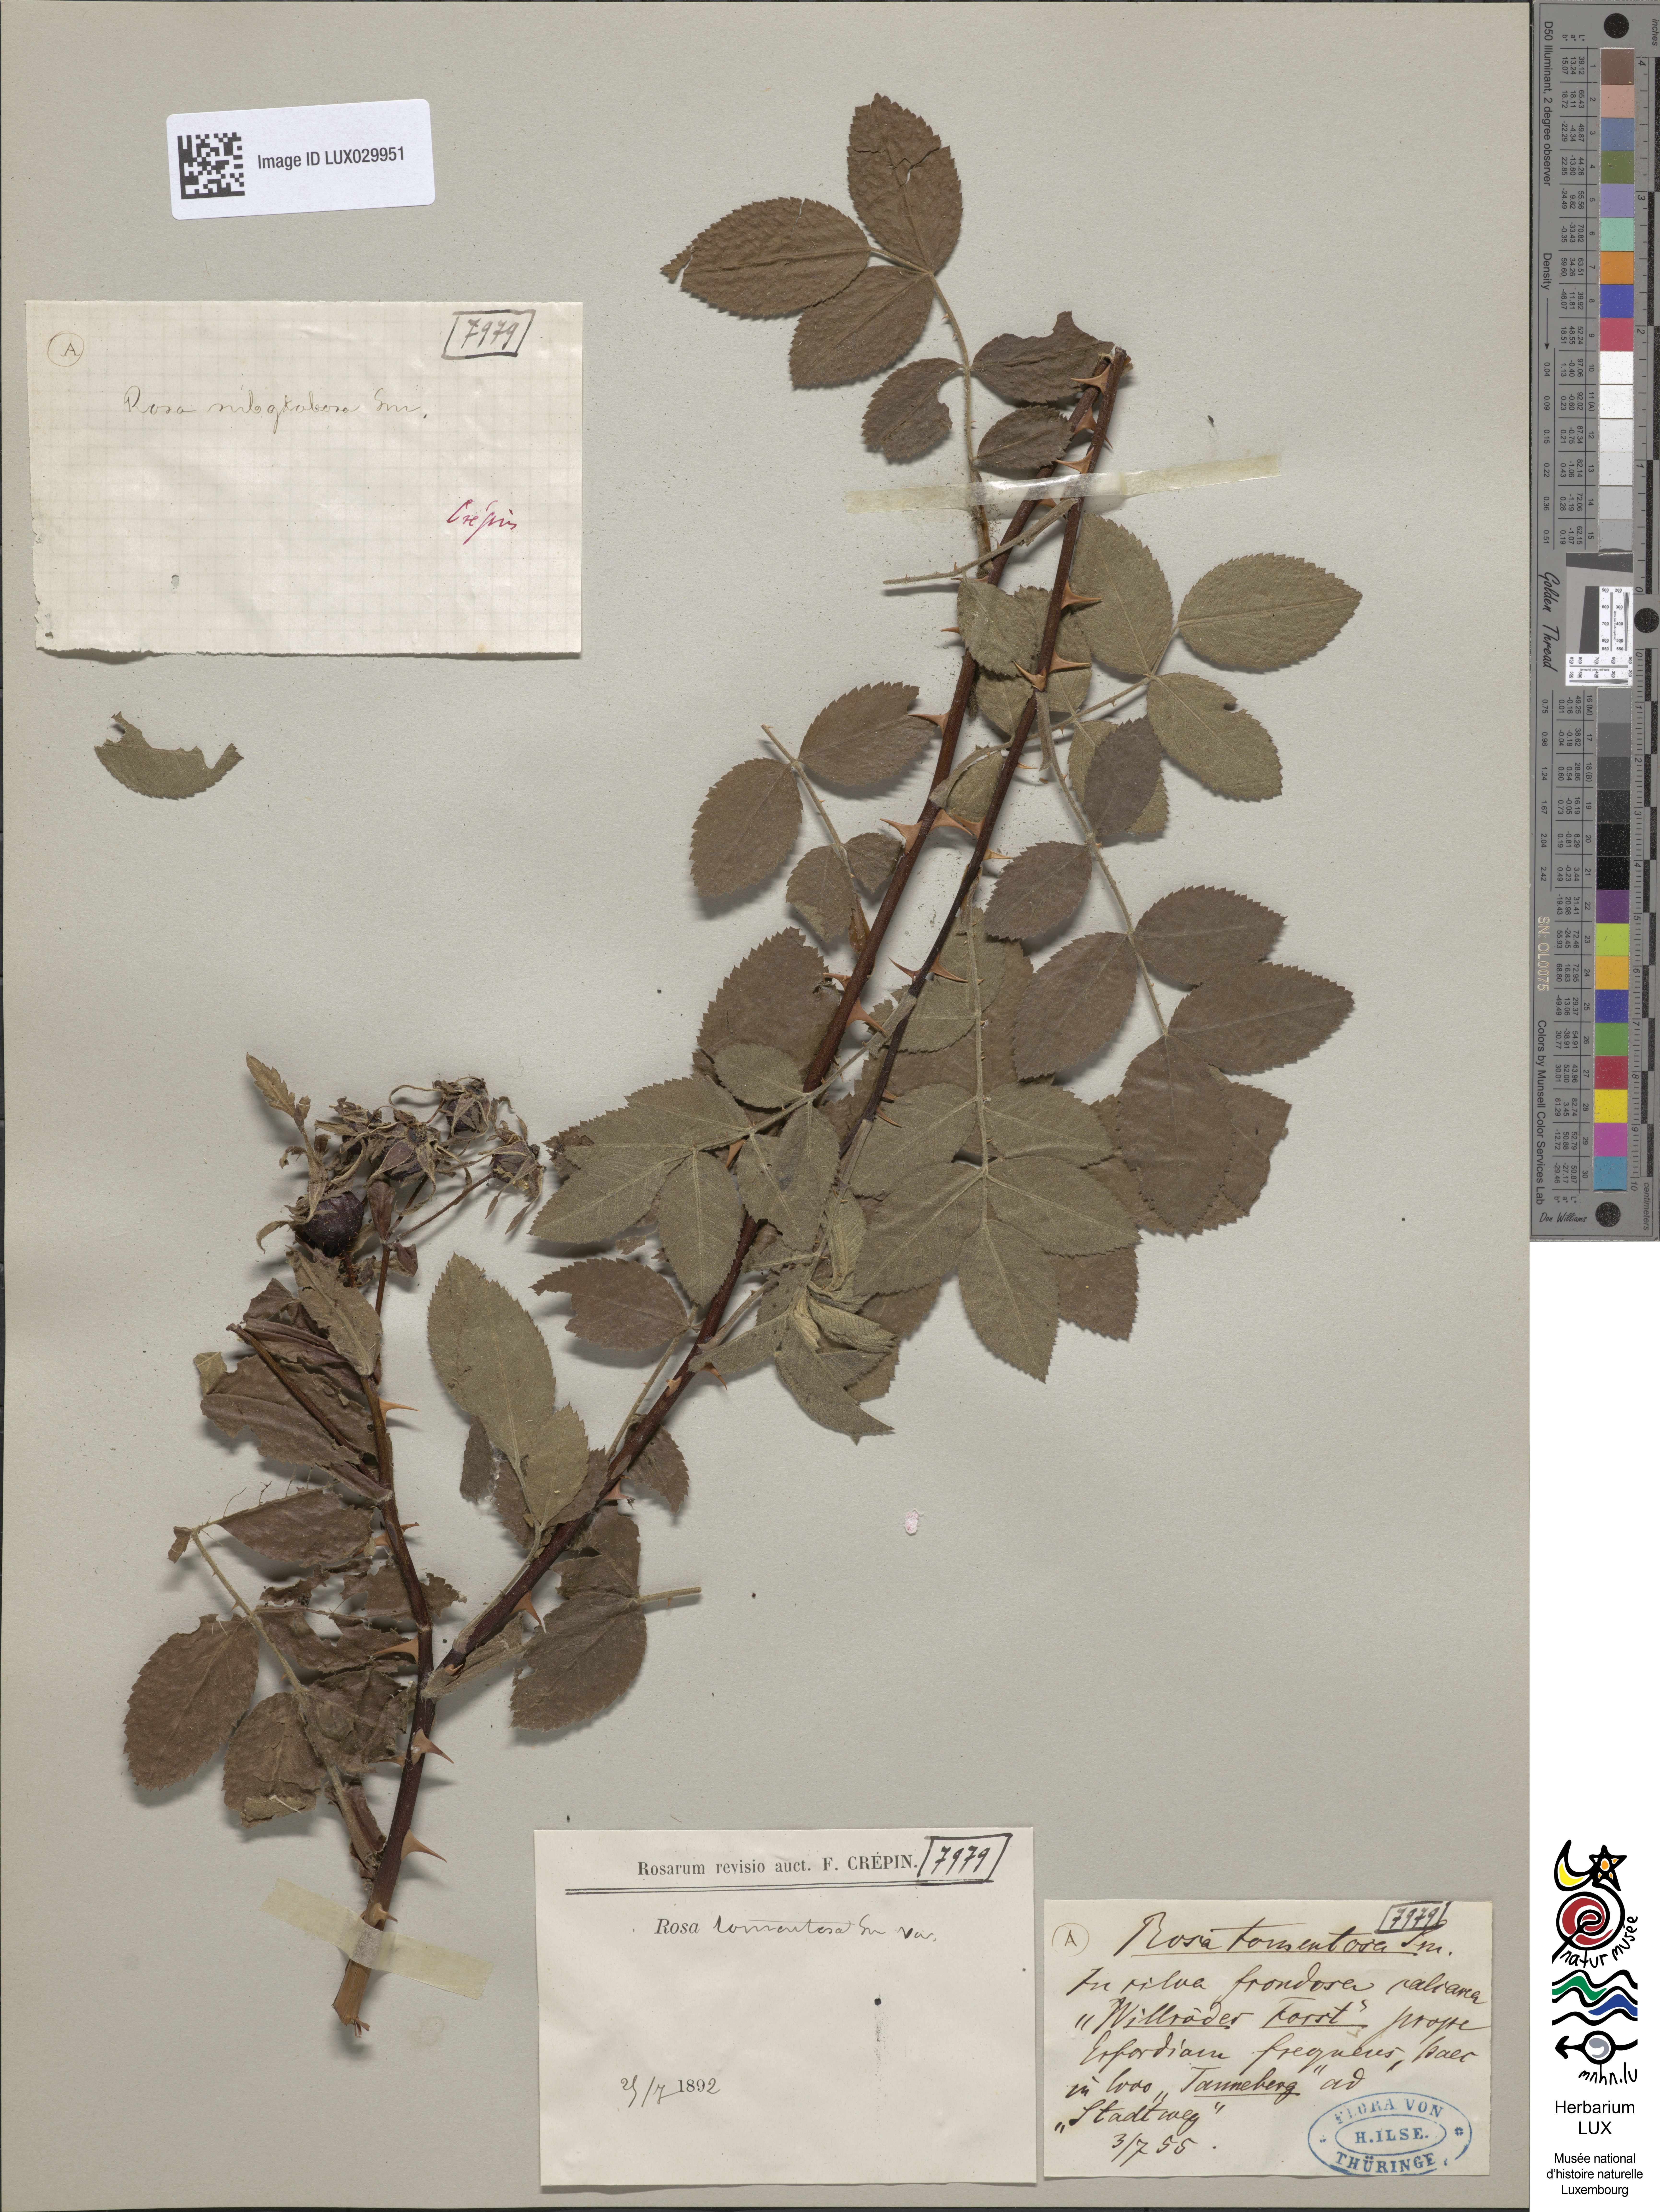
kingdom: Plantae
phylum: Tracheophyta
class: Magnoliopsida
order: Rosales
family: Rosaceae
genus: Rosa
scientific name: Rosa tomentosa
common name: Downy rose
